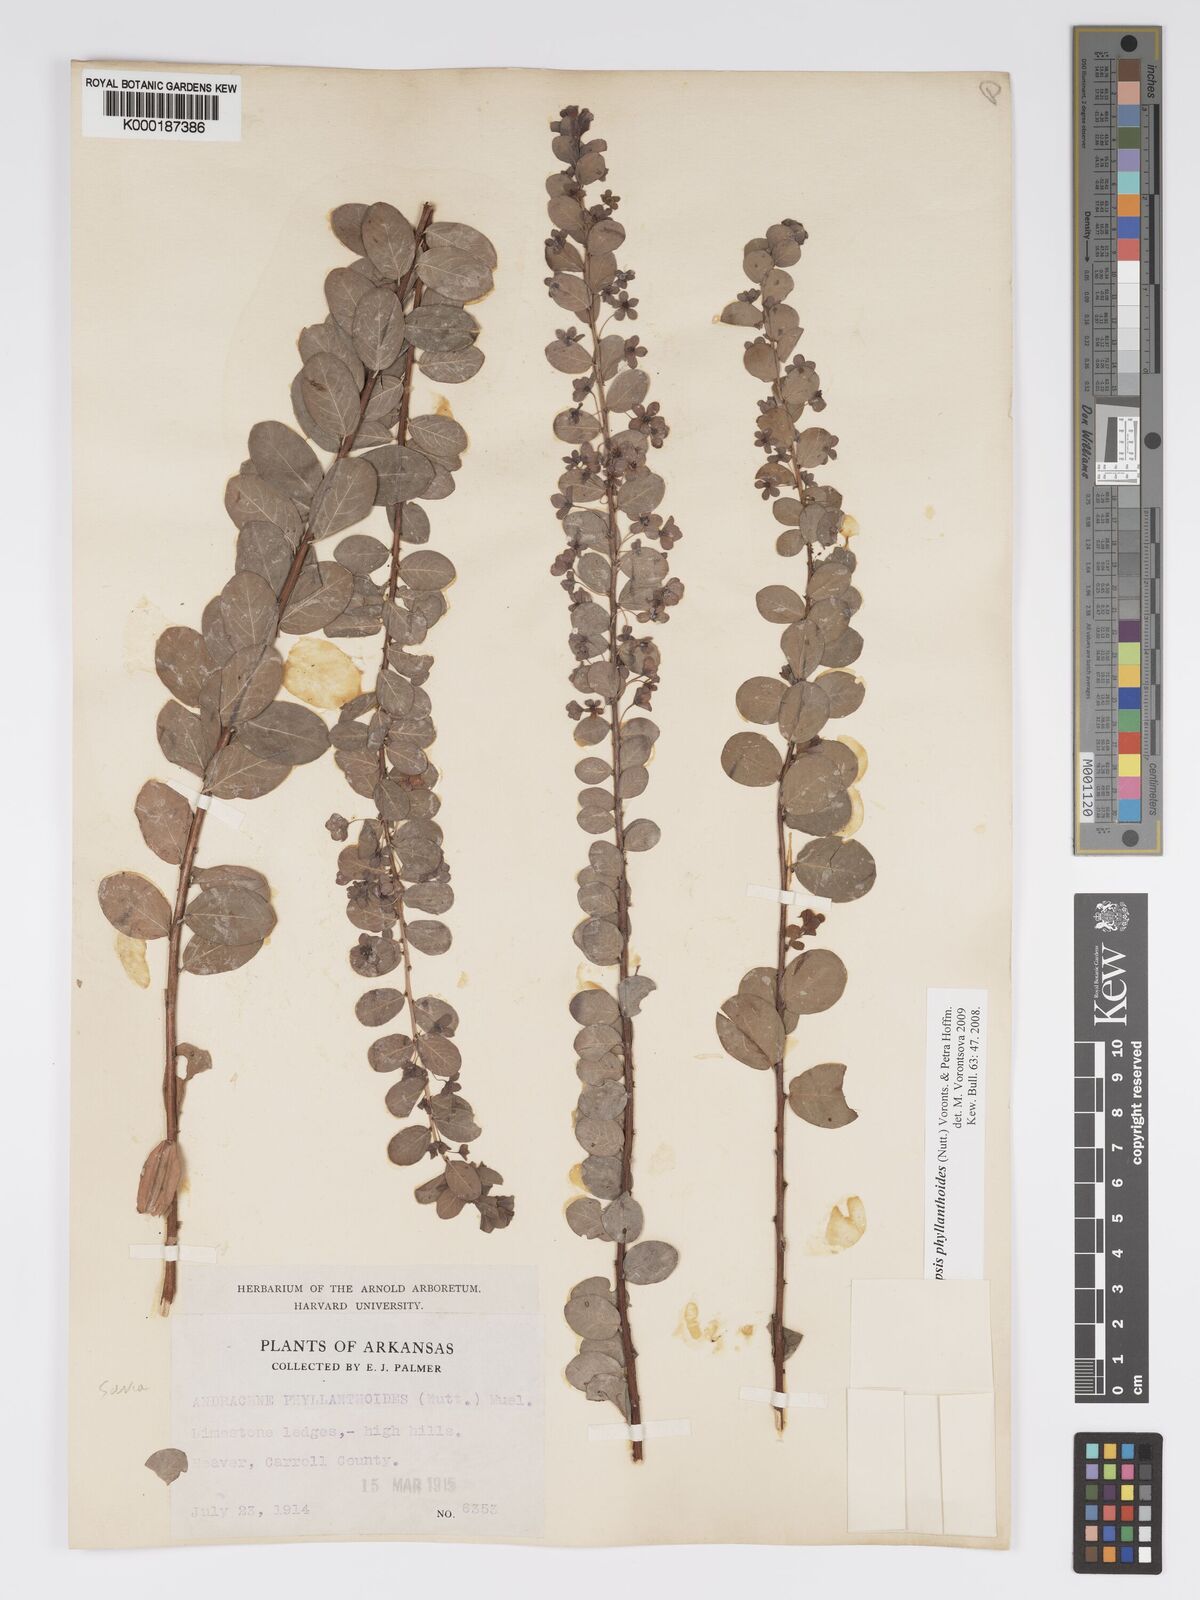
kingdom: Plantae
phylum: Tracheophyta
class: Magnoliopsida
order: Malpighiales
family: Phyllanthaceae
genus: Andrachne
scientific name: Andrachne
